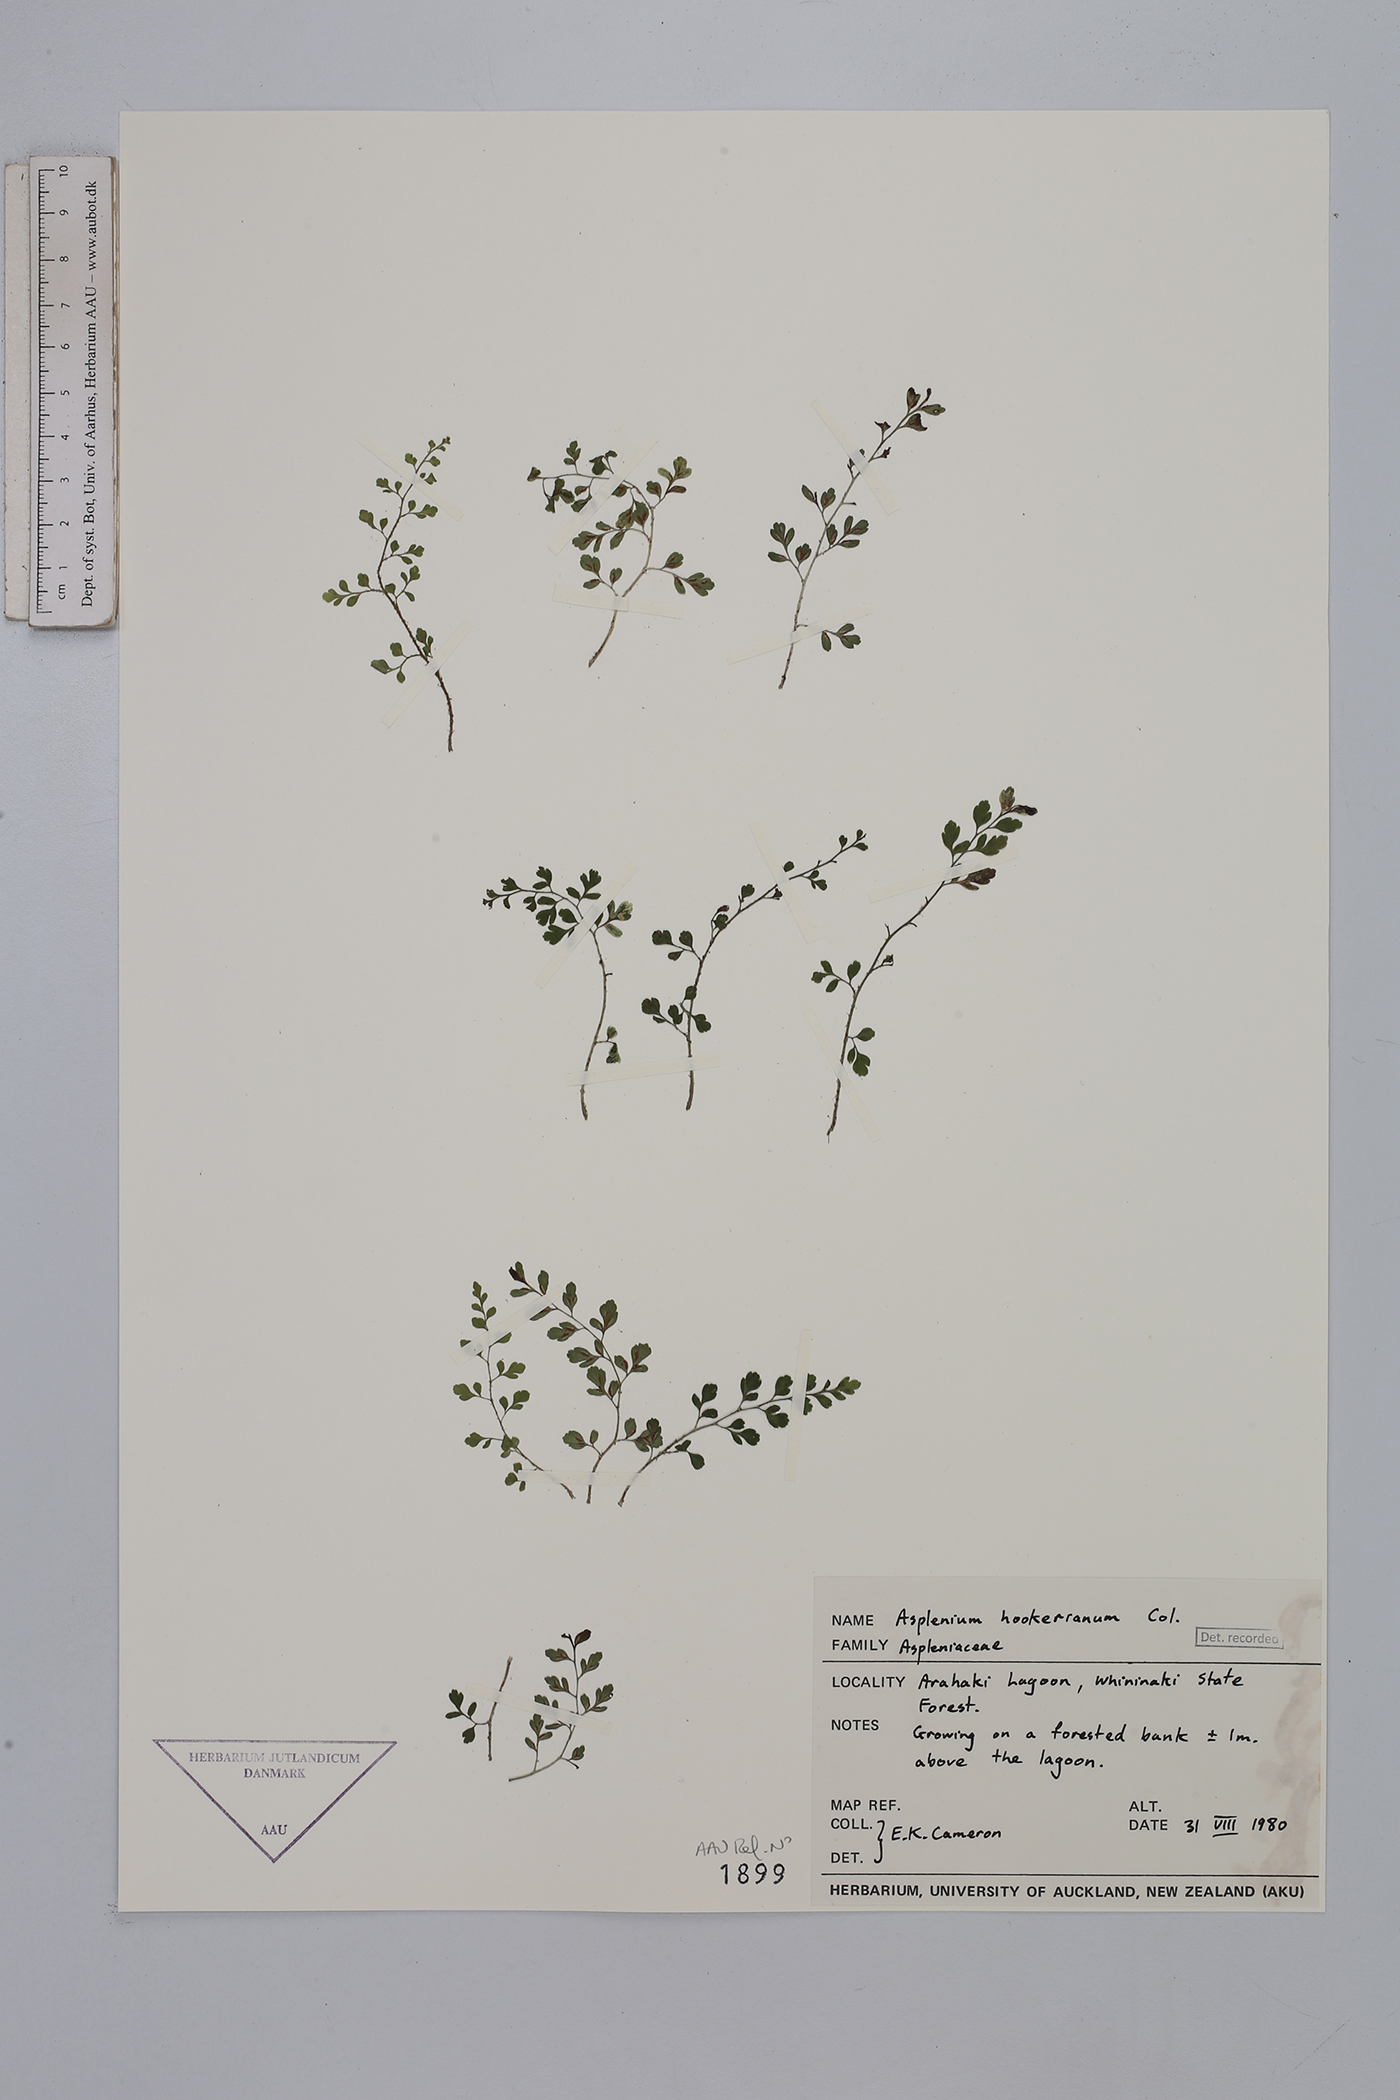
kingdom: Plantae
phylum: Tracheophyta
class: Polypodiopsida
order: Polypodiales
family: Aspleniaceae
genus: Asplenium
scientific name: Asplenium hookerianum
